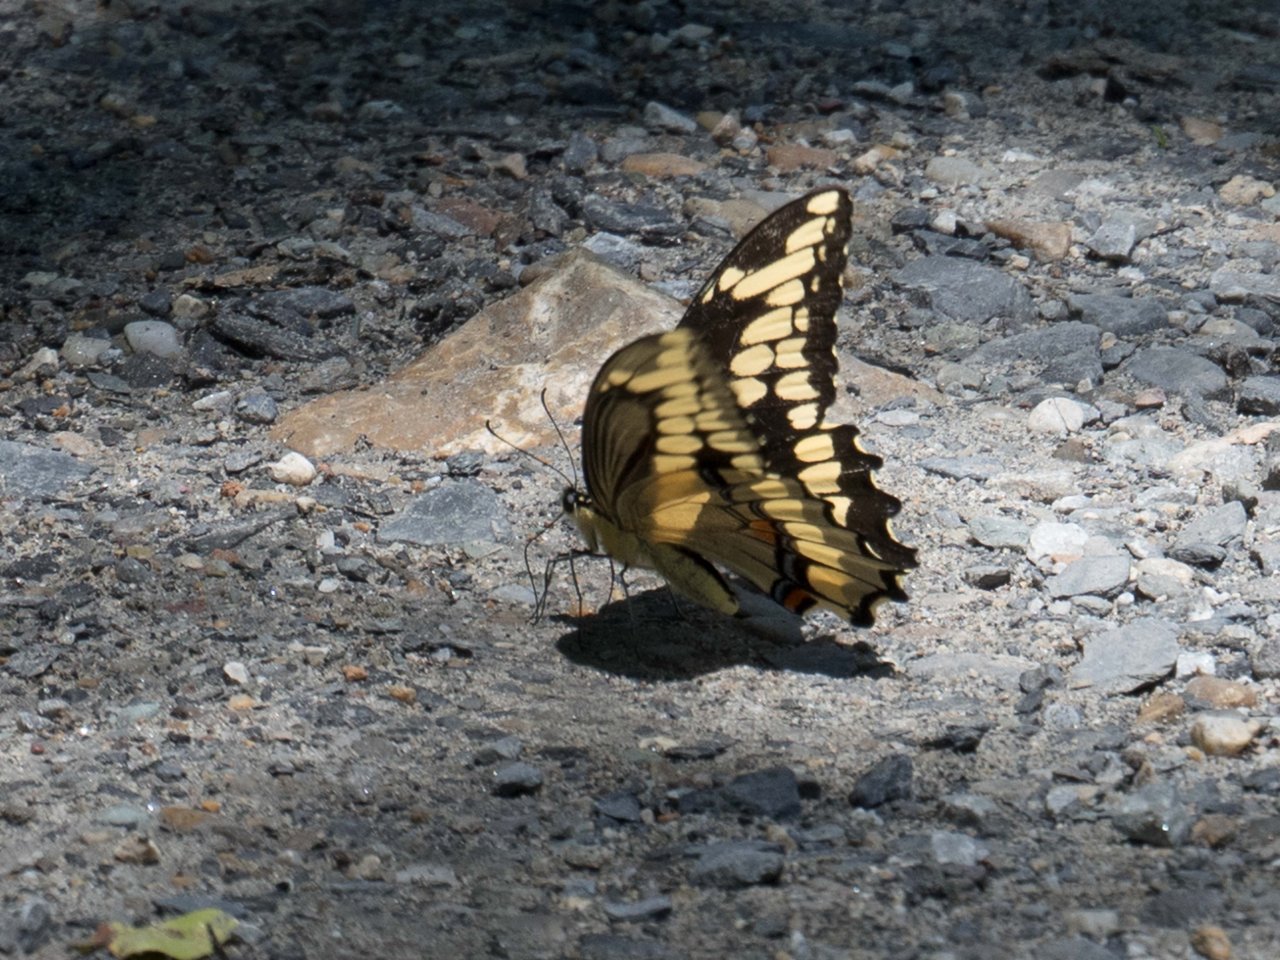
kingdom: Animalia
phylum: Arthropoda
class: Insecta
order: Lepidoptera
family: Papilionidae
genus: Papilio
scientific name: Papilio cresphontes
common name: Eastern Giant Swallowtail
